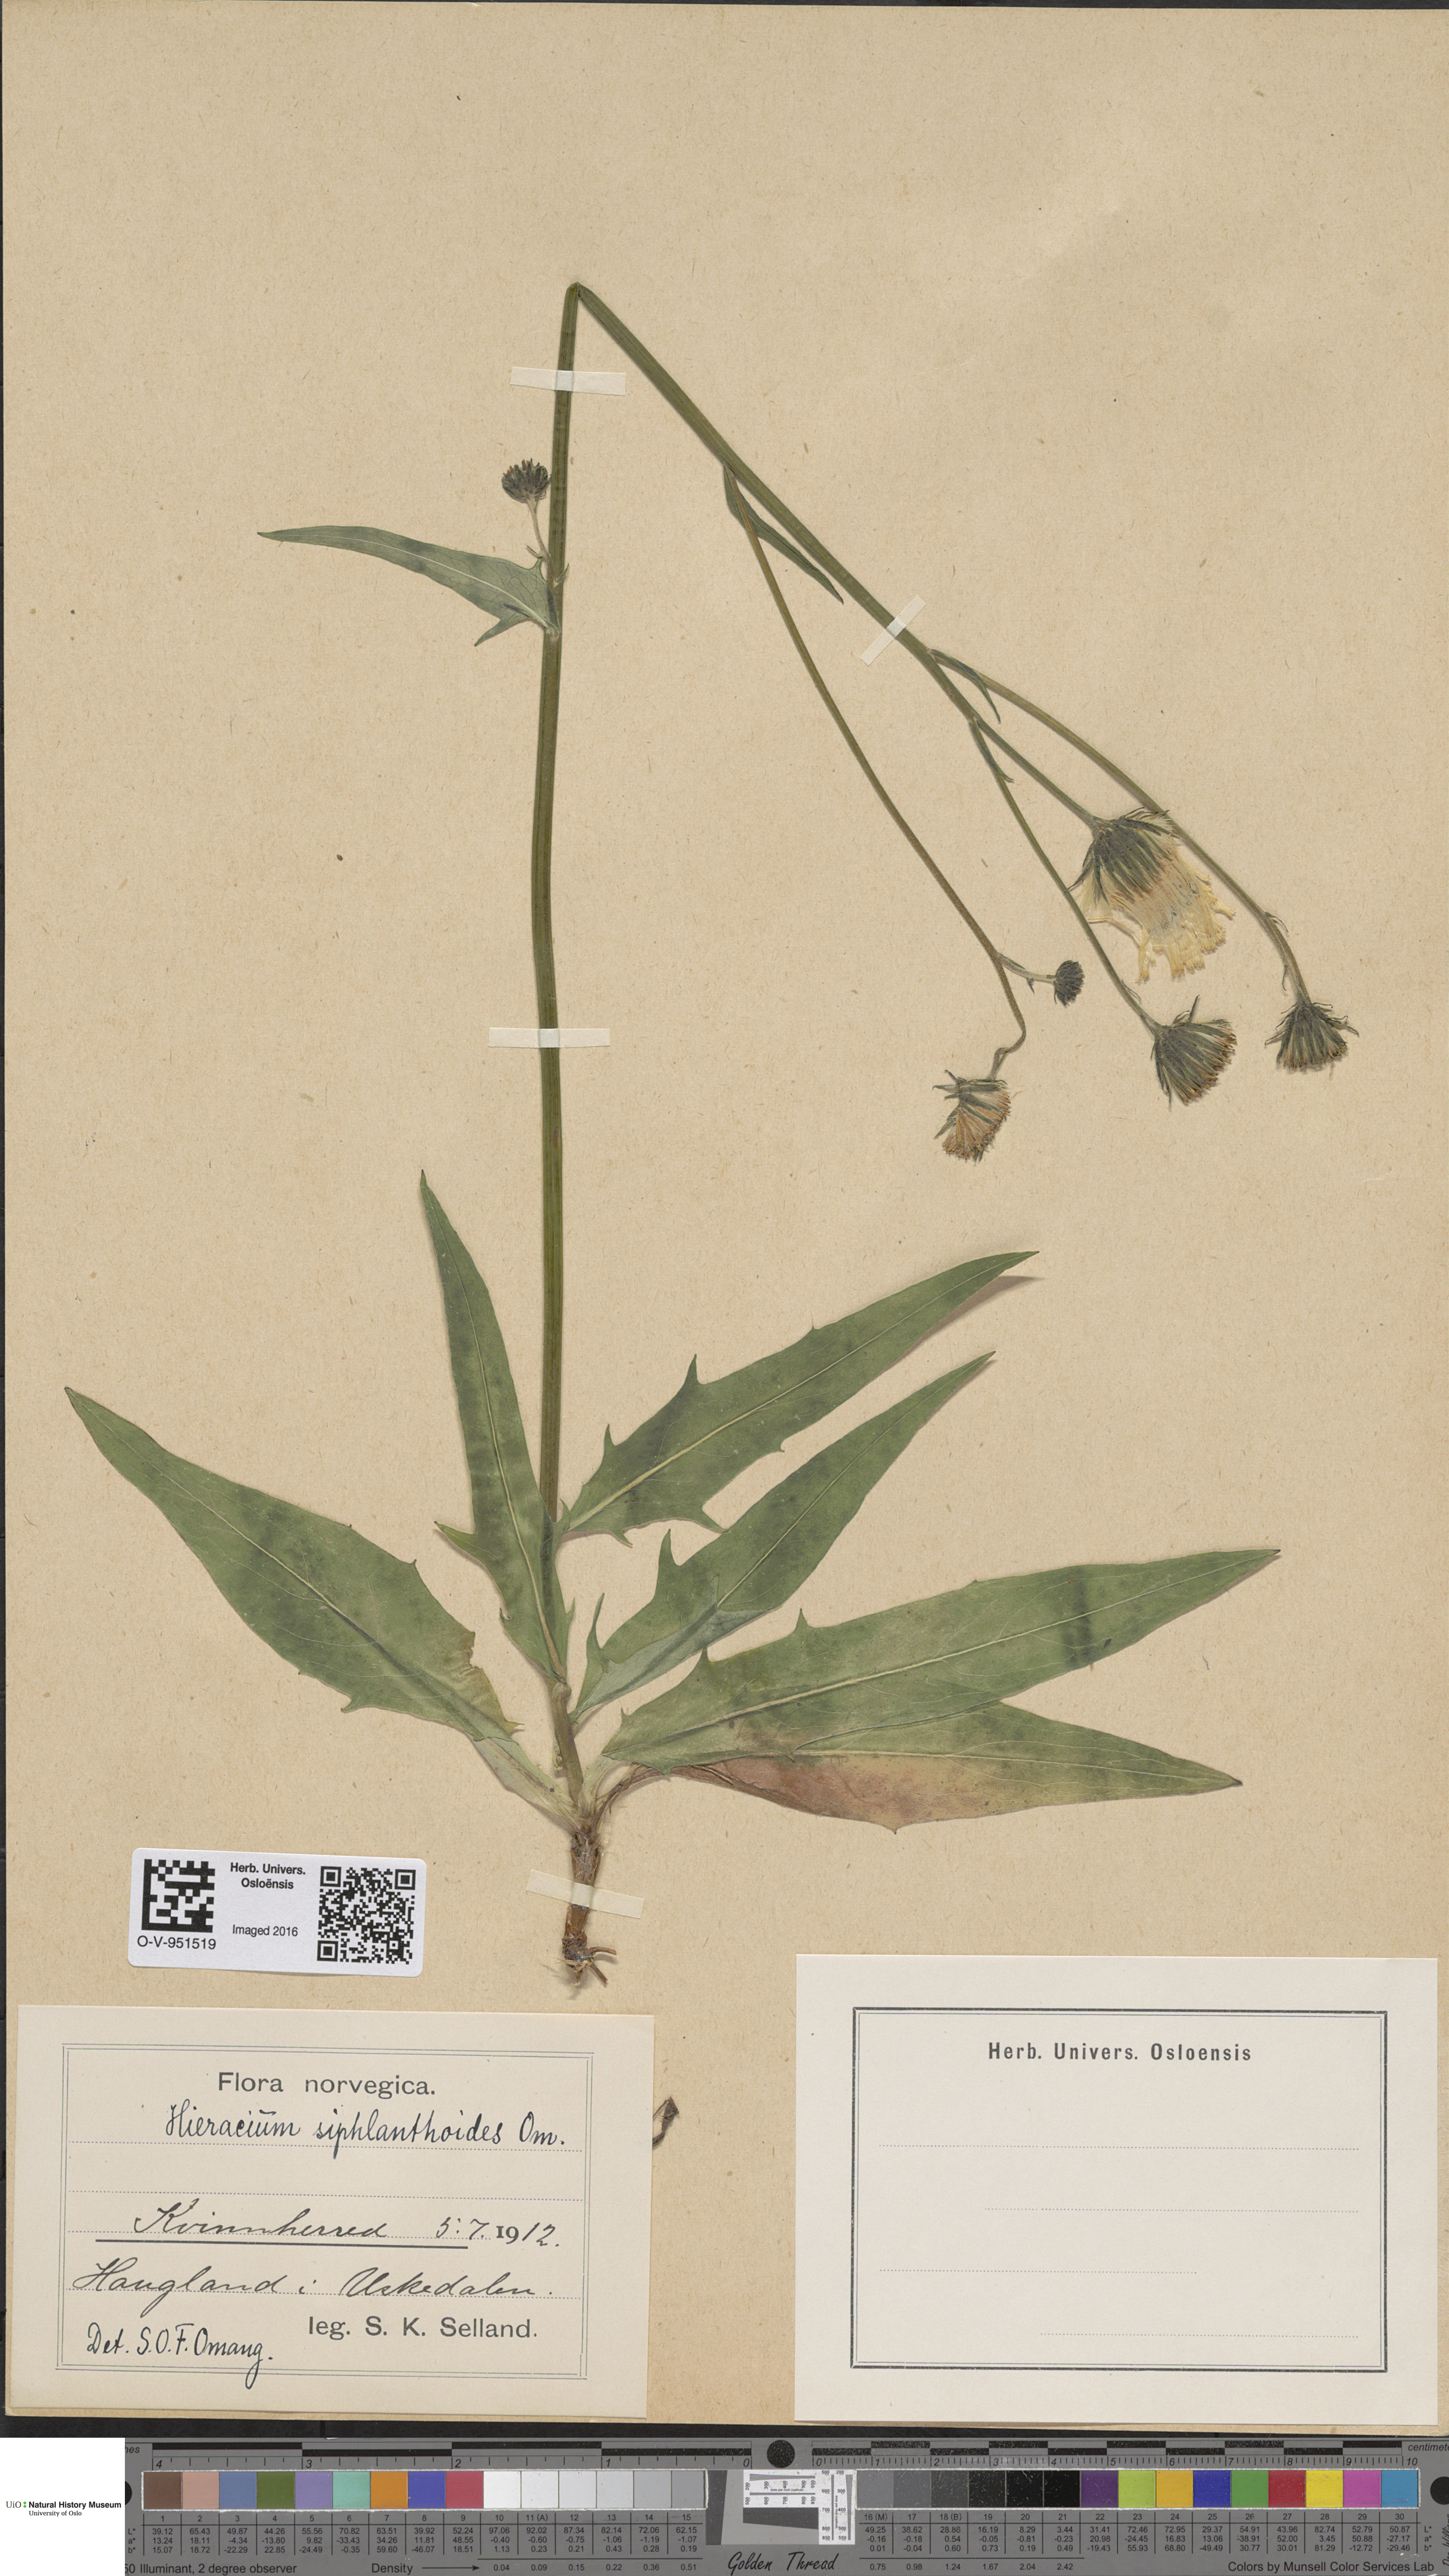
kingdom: Plantae
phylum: Tracheophyta
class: Magnoliopsida
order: Asterales
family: Asteraceae
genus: Hieracium
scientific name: Hieracium
